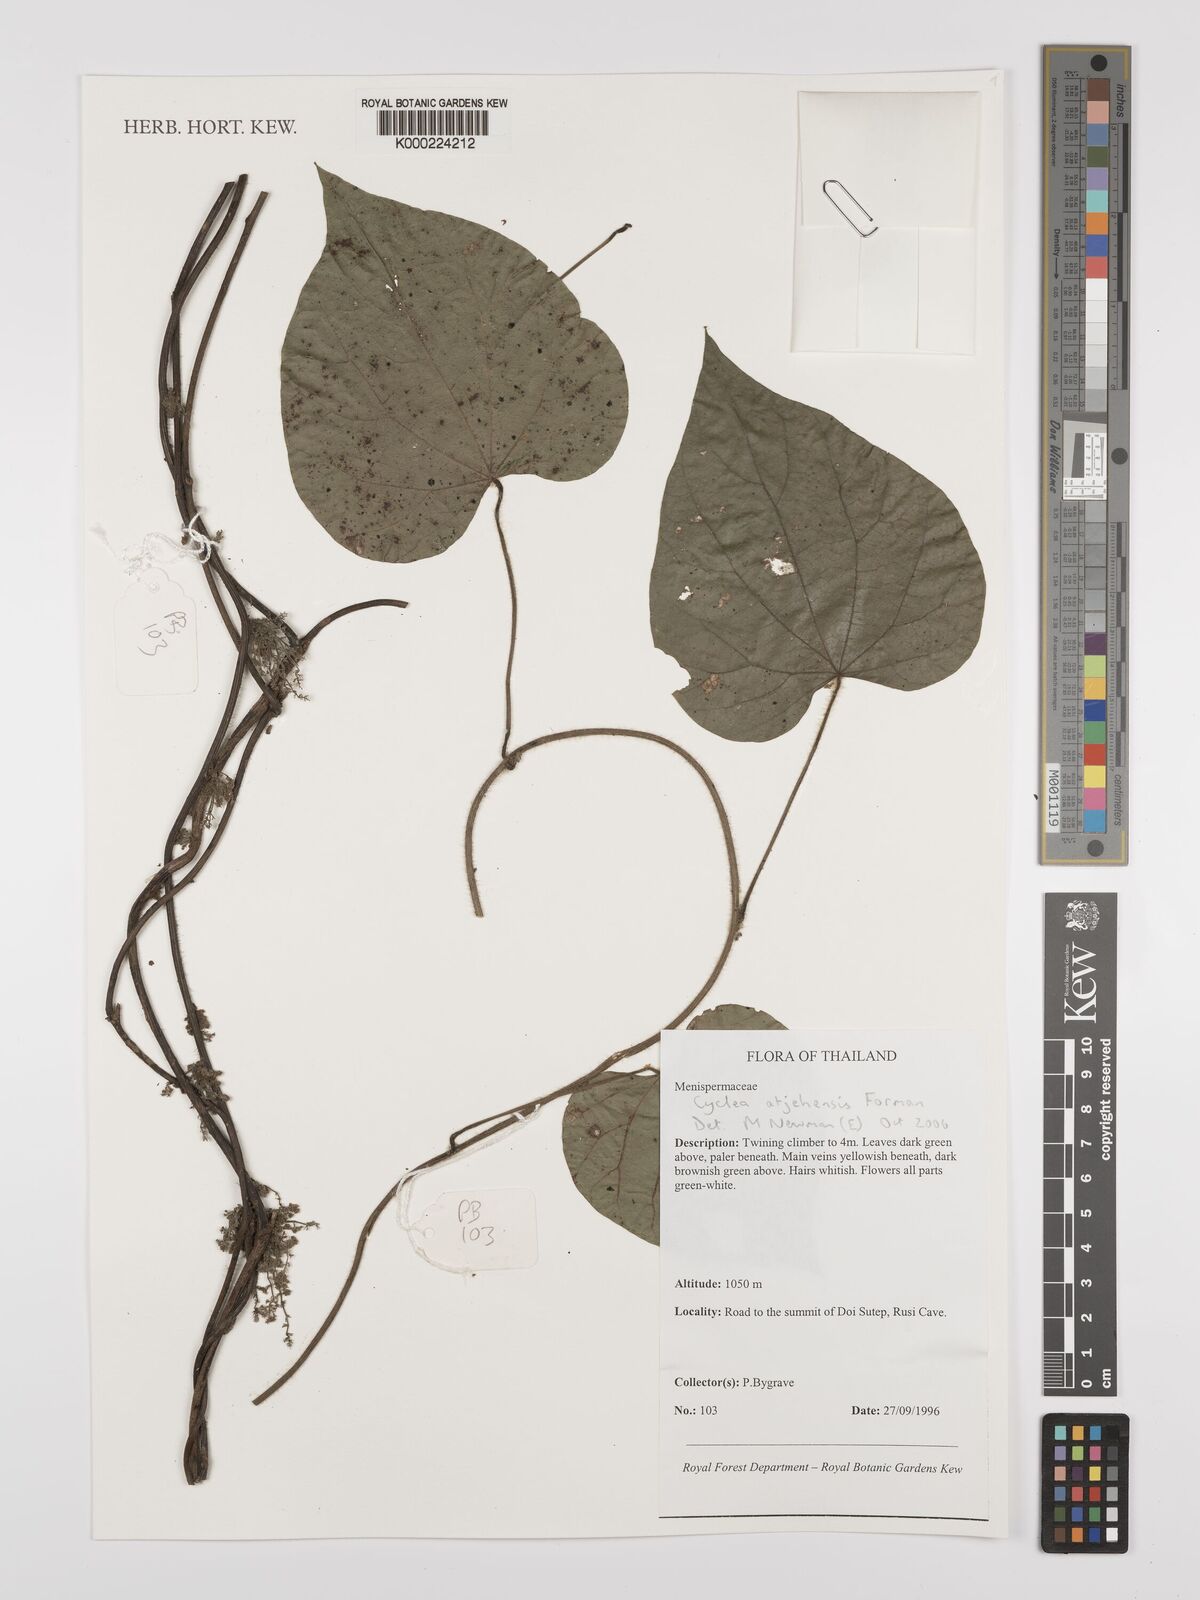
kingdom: Plantae
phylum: Tracheophyta
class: Magnoliopsida
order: Ranunculales
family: Menispermaceae
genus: Cyclea
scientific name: Cyclea atjehensis
